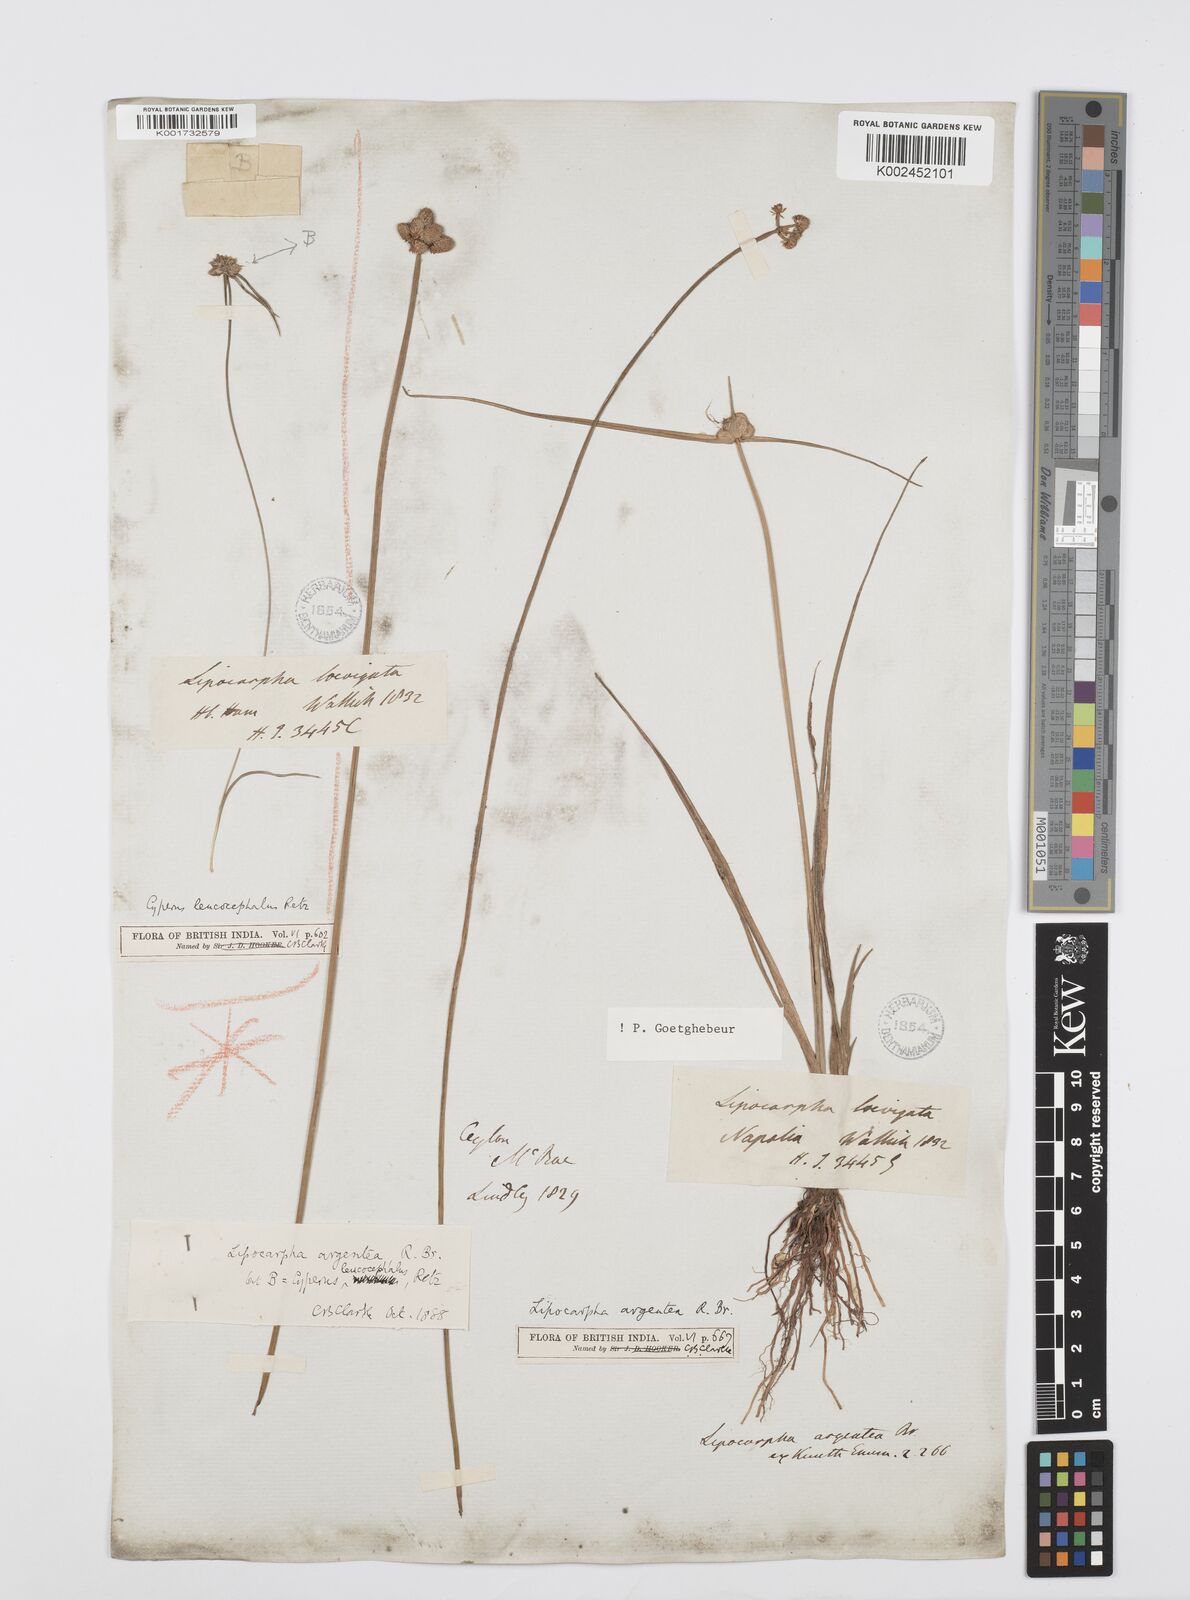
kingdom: Plantae
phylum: Tracheophyta
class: Liliopsida
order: Poales
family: Cyperaceae
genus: Cyperus
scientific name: Cyperus
